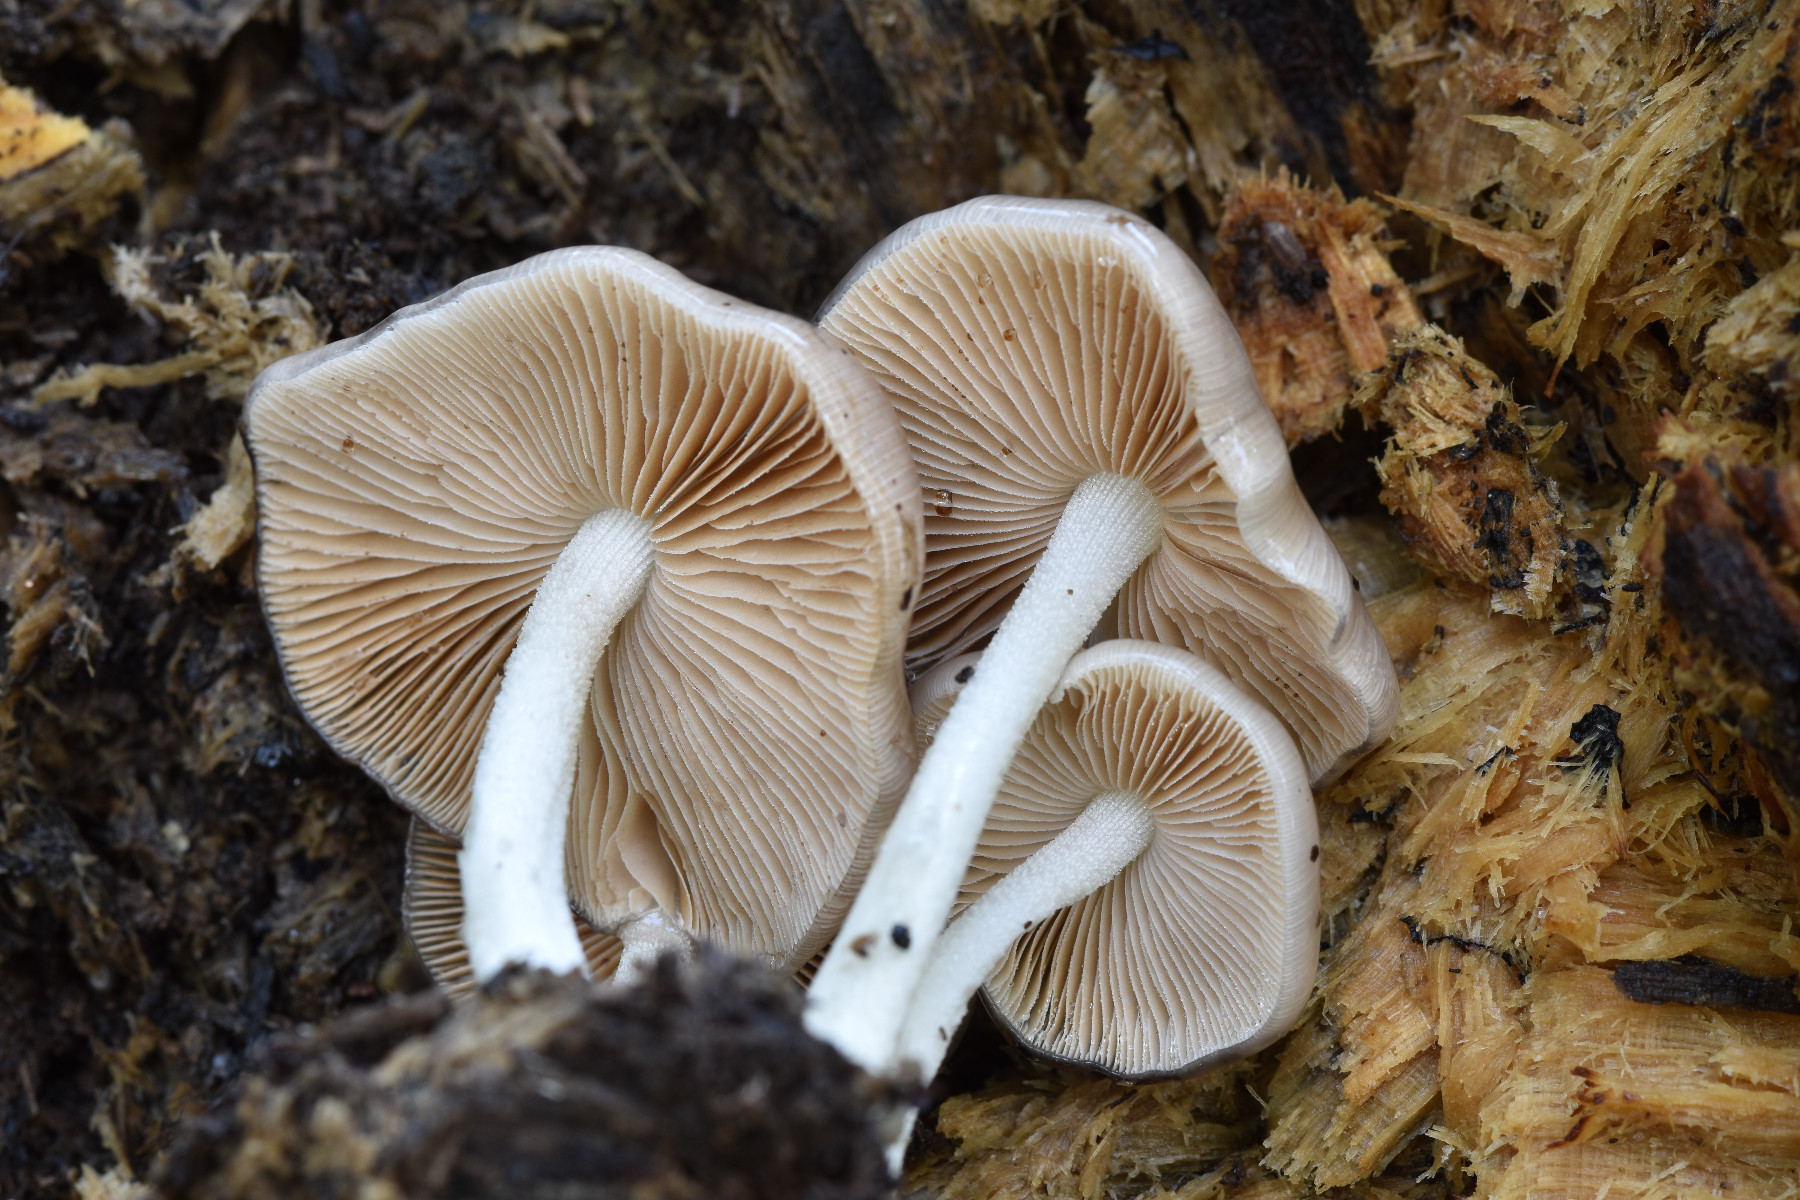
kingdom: Fungi
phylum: Basidiomycota
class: Agaricomycetes
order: Agaricales
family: Bolbitiaceae
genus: Bolbitius
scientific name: Bolbitius reticulatus
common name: Netted fieldcap
